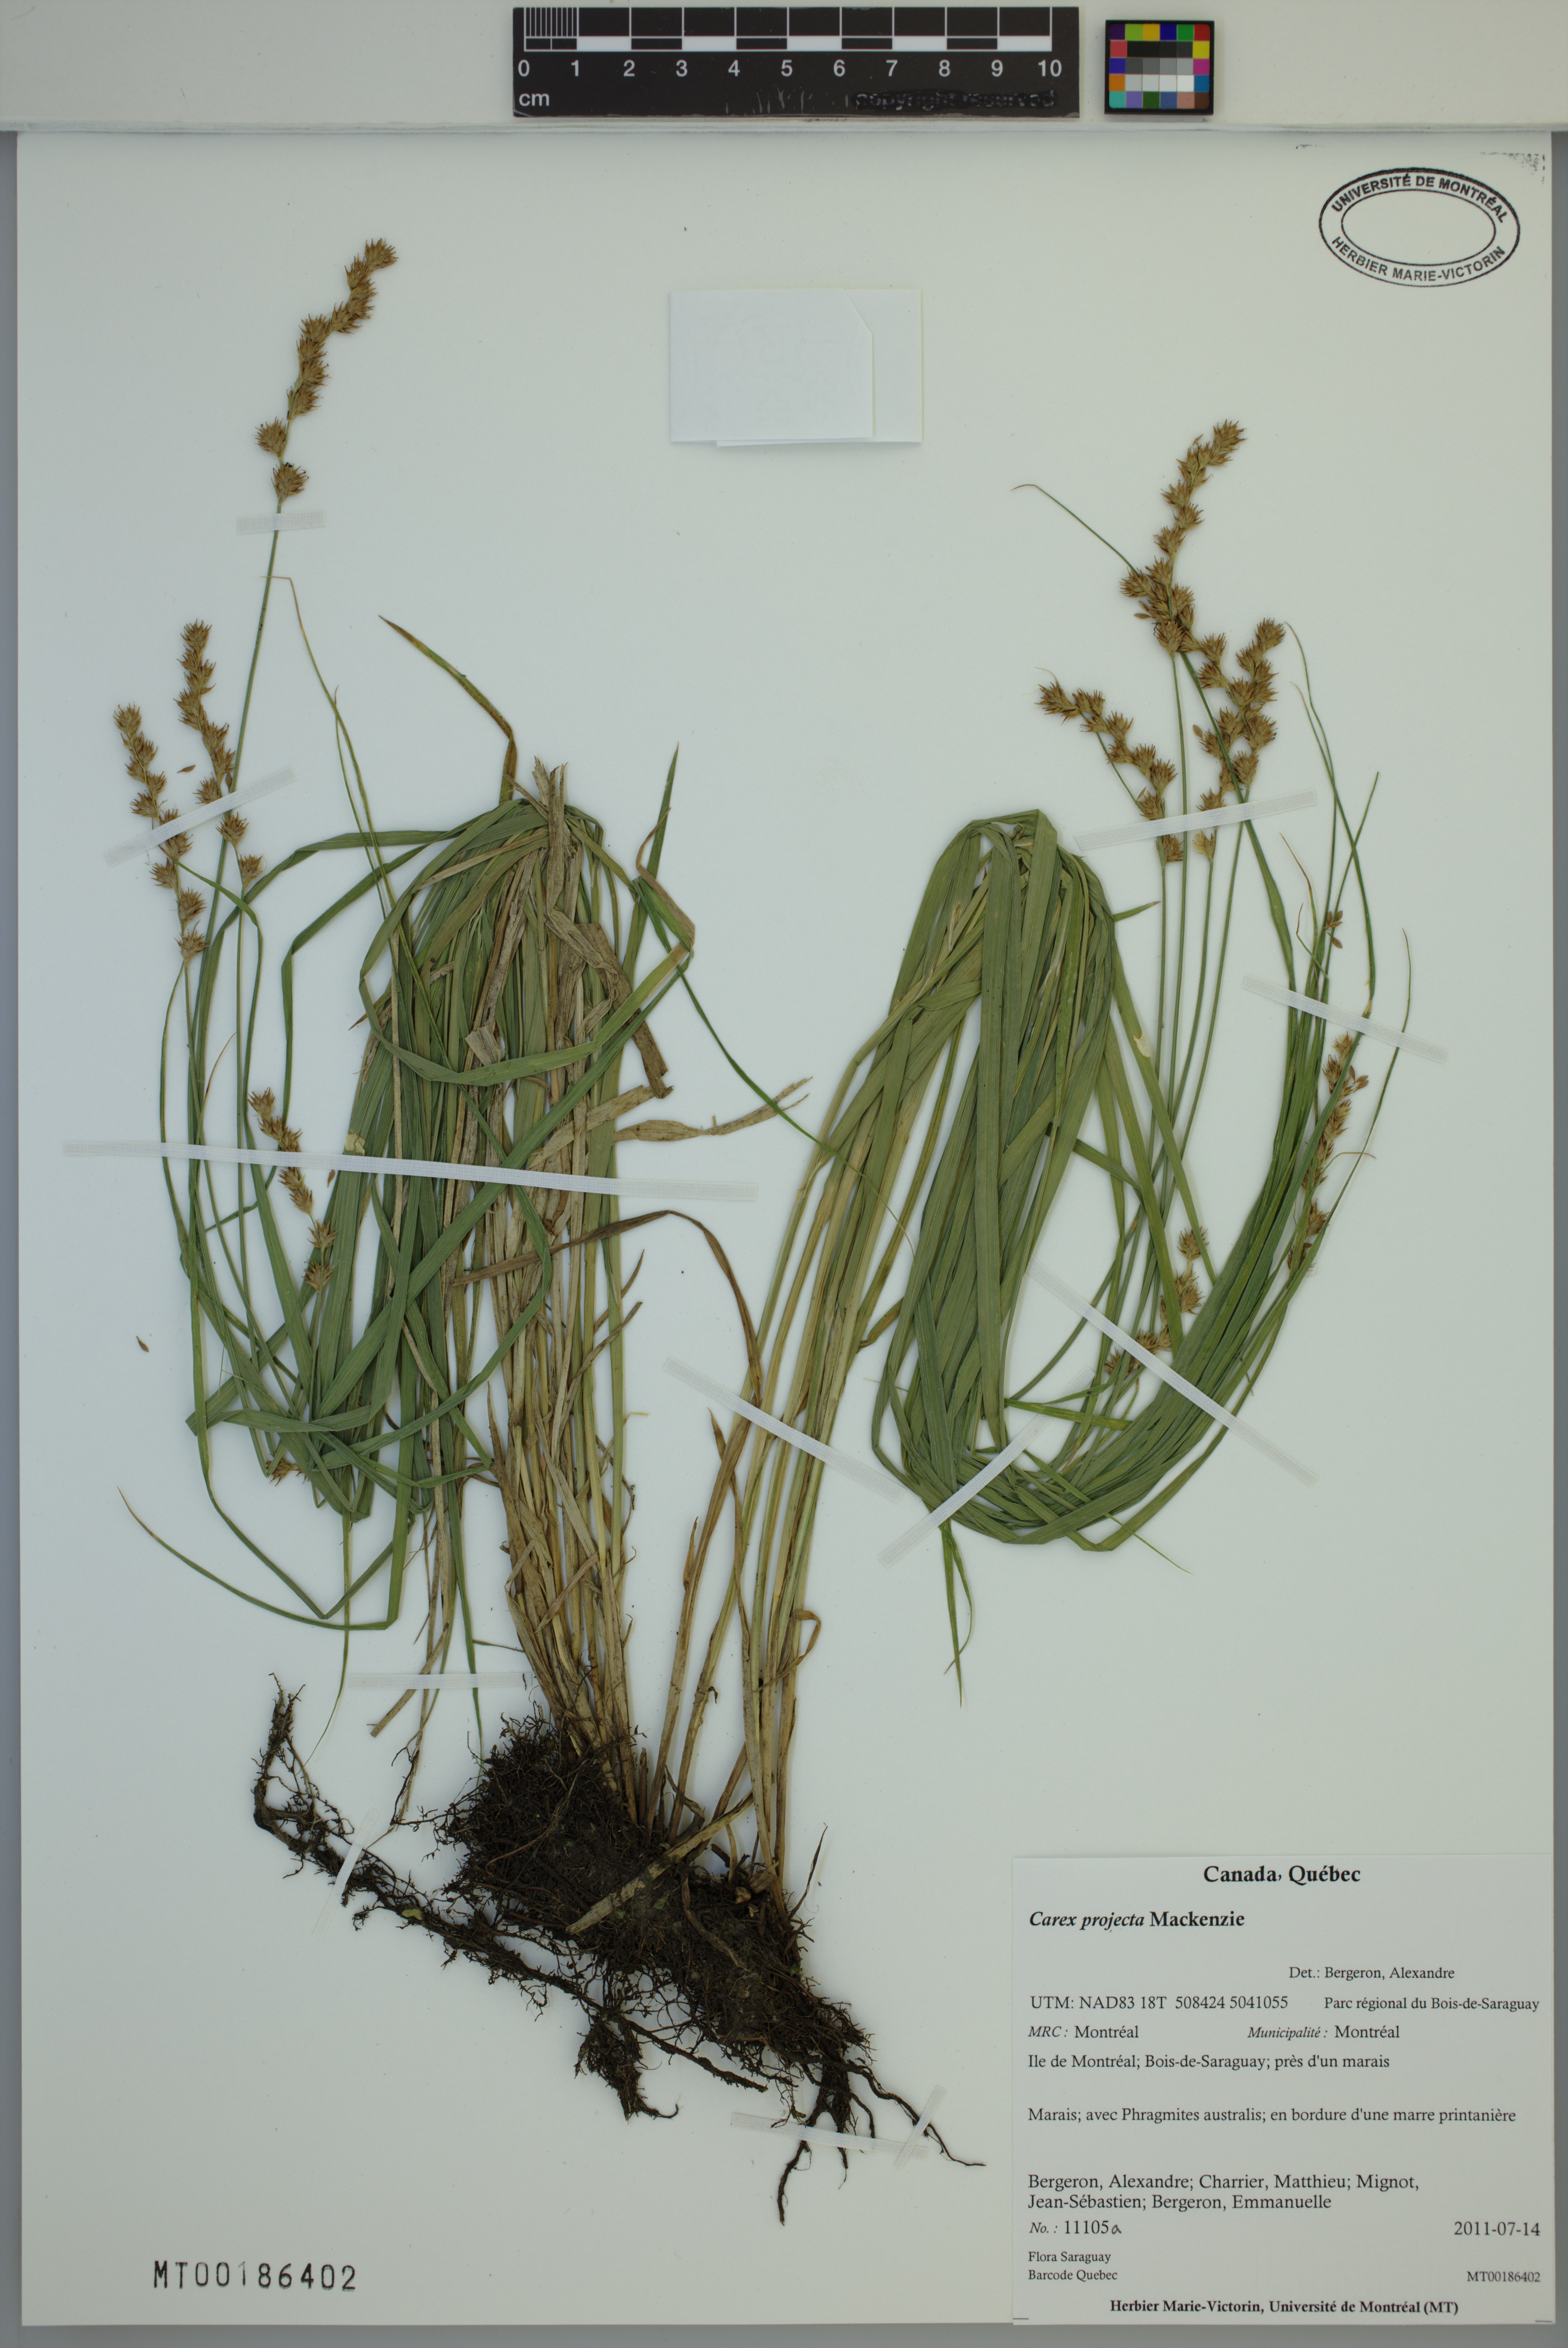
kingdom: Plantae
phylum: Tracheophyta
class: Liliopsida
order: Poales
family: Cyperaceae
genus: Carex
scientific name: Carex projecta
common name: Loose-headed oval sedge
